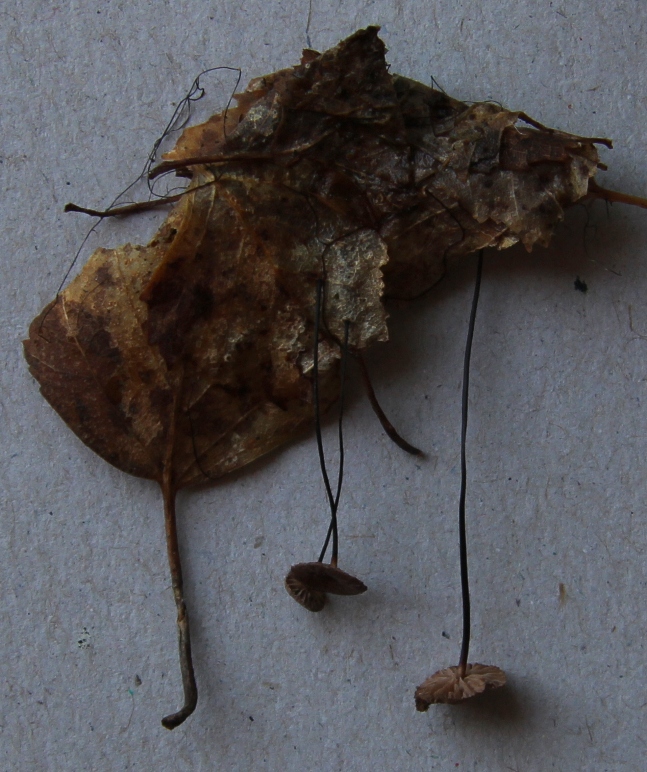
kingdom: Fungi
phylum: Basidiomycota
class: Agaricomycetes
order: Agaricales
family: Omphalotaceae
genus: Gymnopus
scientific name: Gymnopus androsaceus
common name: trådstokket fladhat
